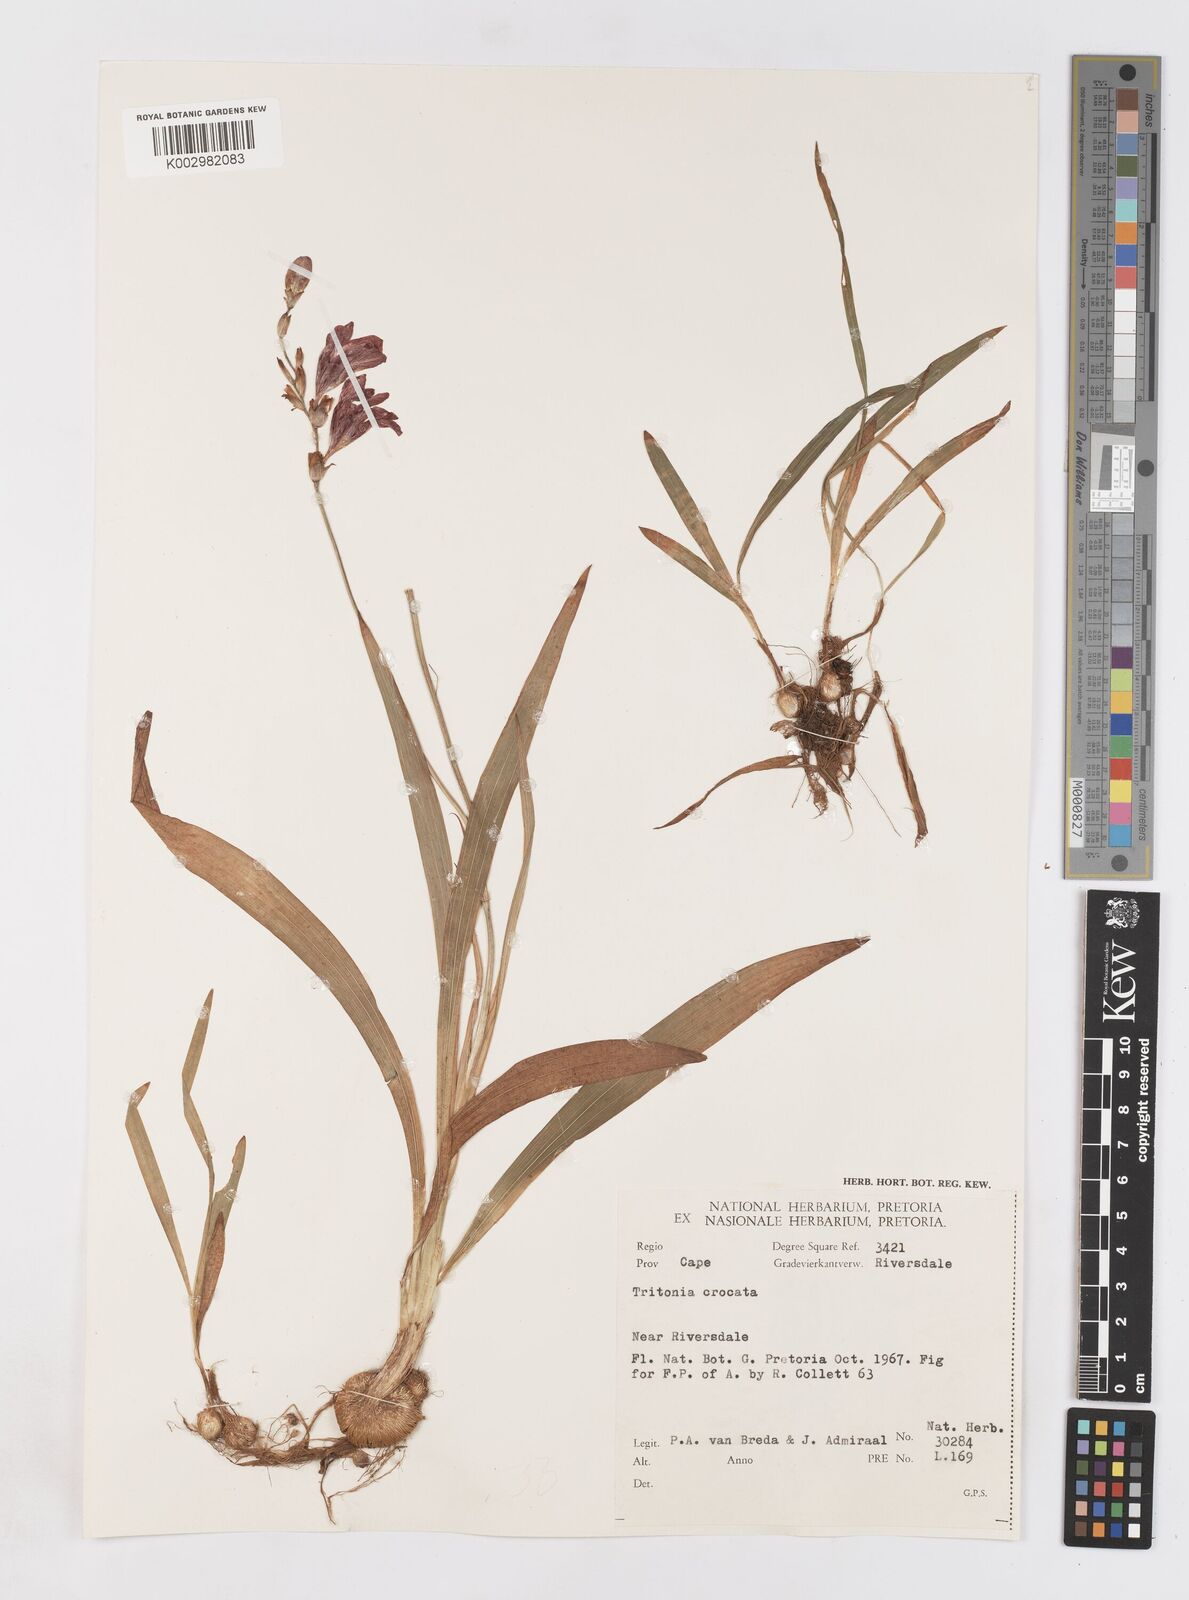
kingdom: Plantae
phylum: Tracheophyta
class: Liliopsida
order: Asparagales
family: Iridaceae
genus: Tritonia
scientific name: Tritonia crocata
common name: Flame-freesia
